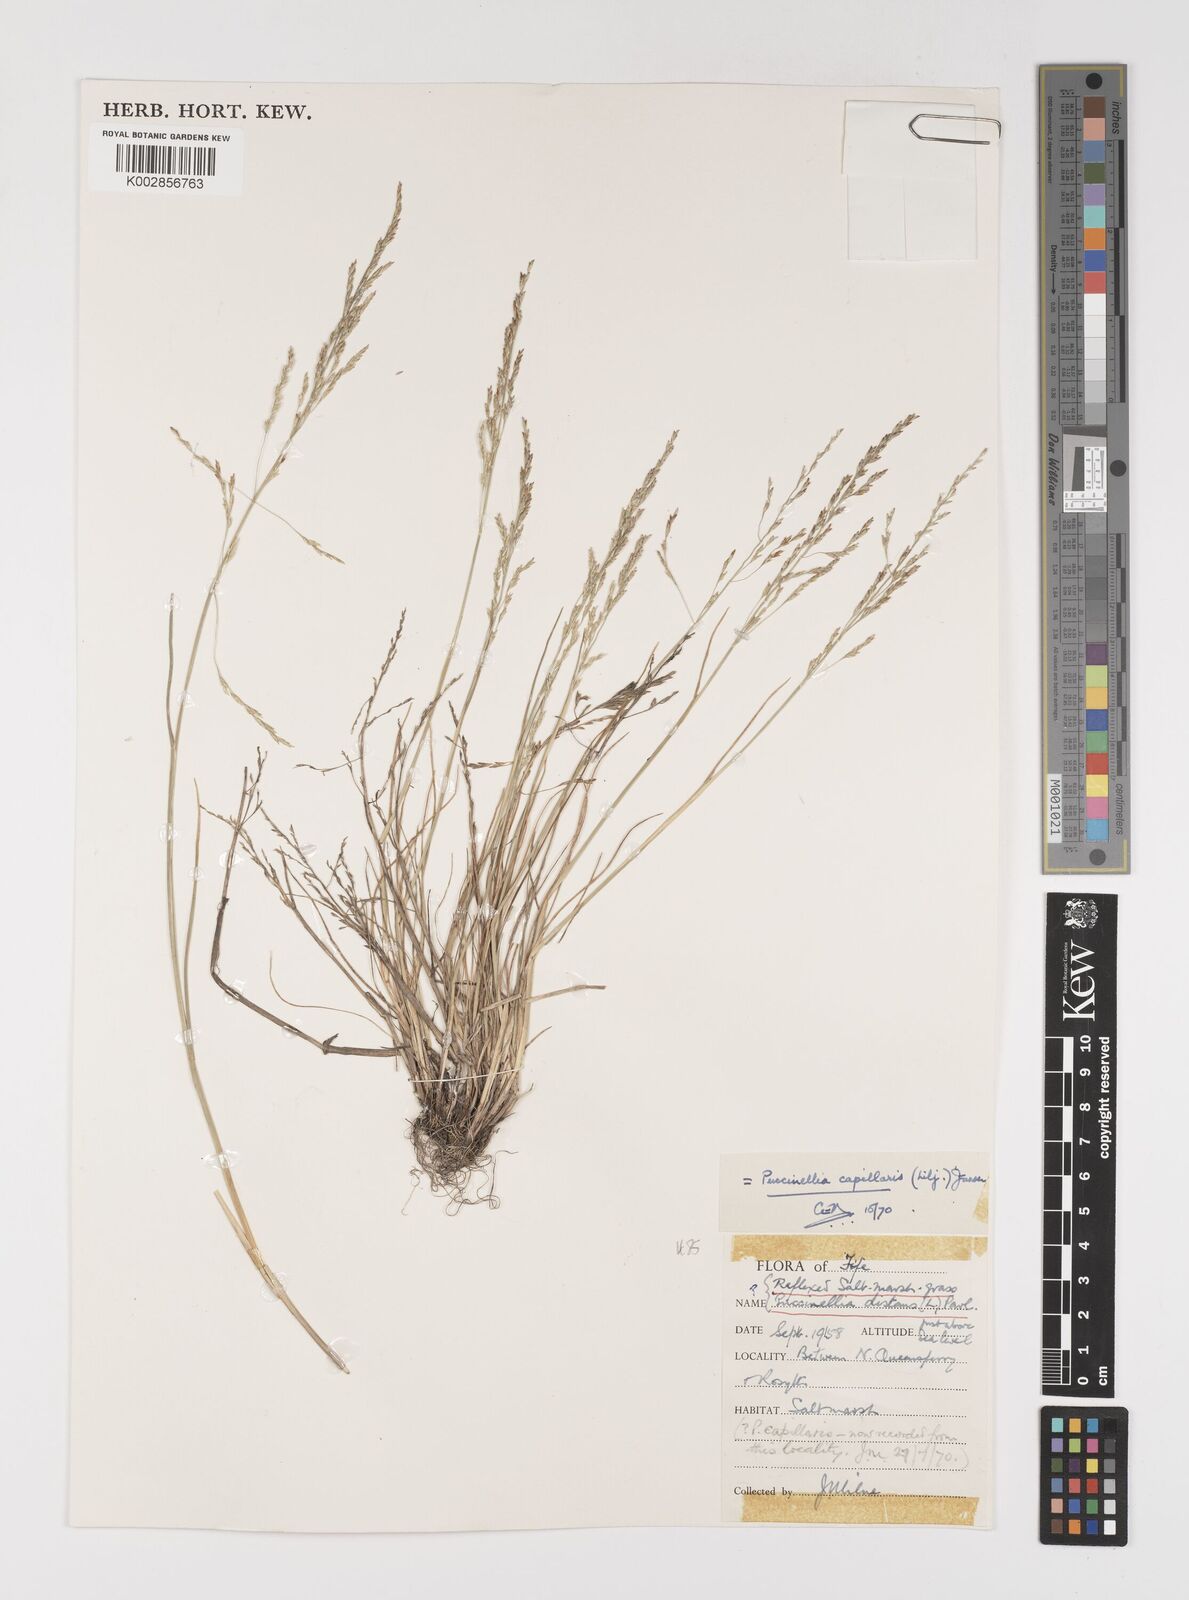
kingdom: Plantae
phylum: Tracheophyta
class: Liliopsida
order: Poales
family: Poaceae
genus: Puccinellia
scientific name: Puccinellia distans
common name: Weeping alkaligrass
